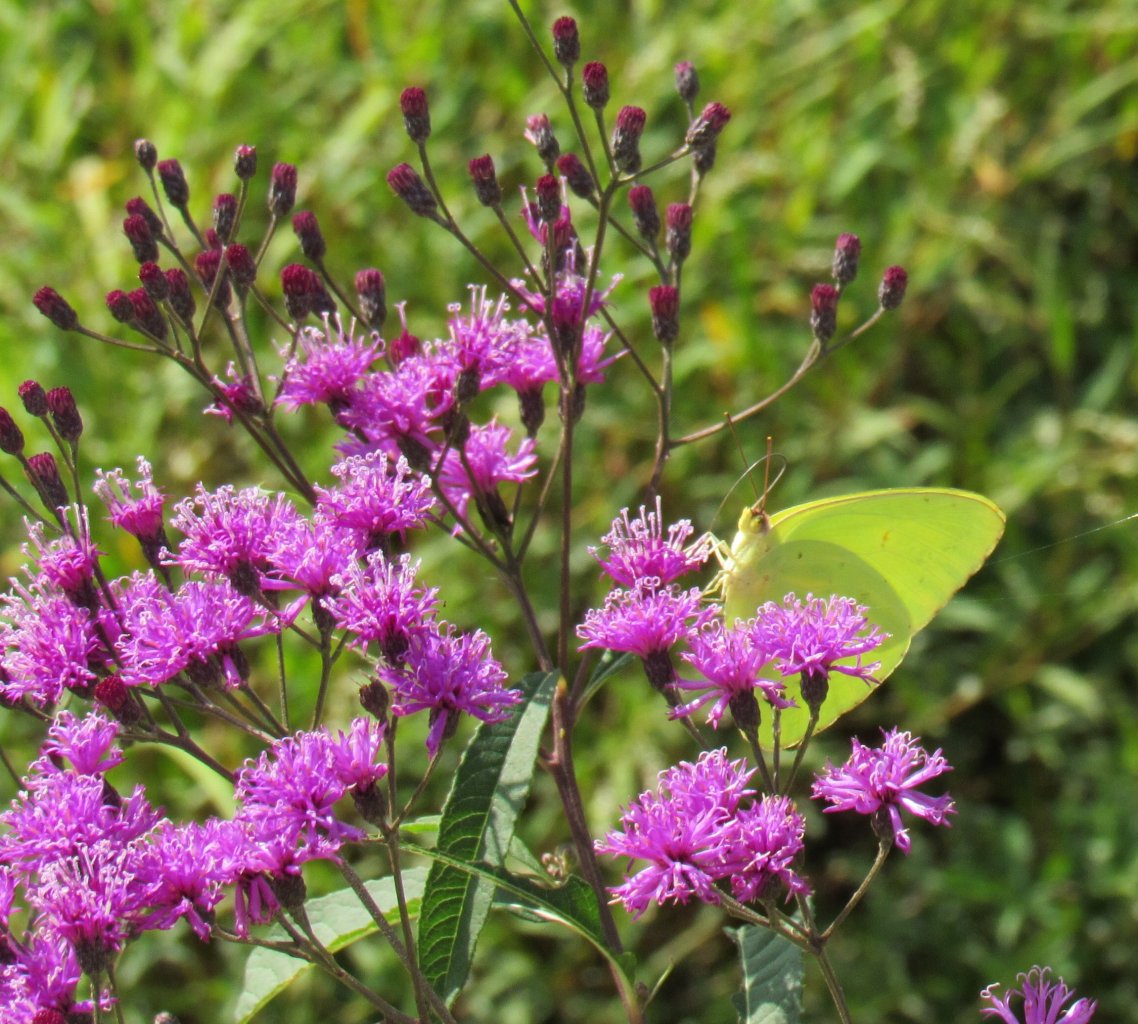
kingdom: Animalia
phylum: Arthropoda
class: Insecta
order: Lepidoptera
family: Pieridae
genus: Phoebis
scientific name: Phoebis sennae
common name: Cloudless Sulphur
